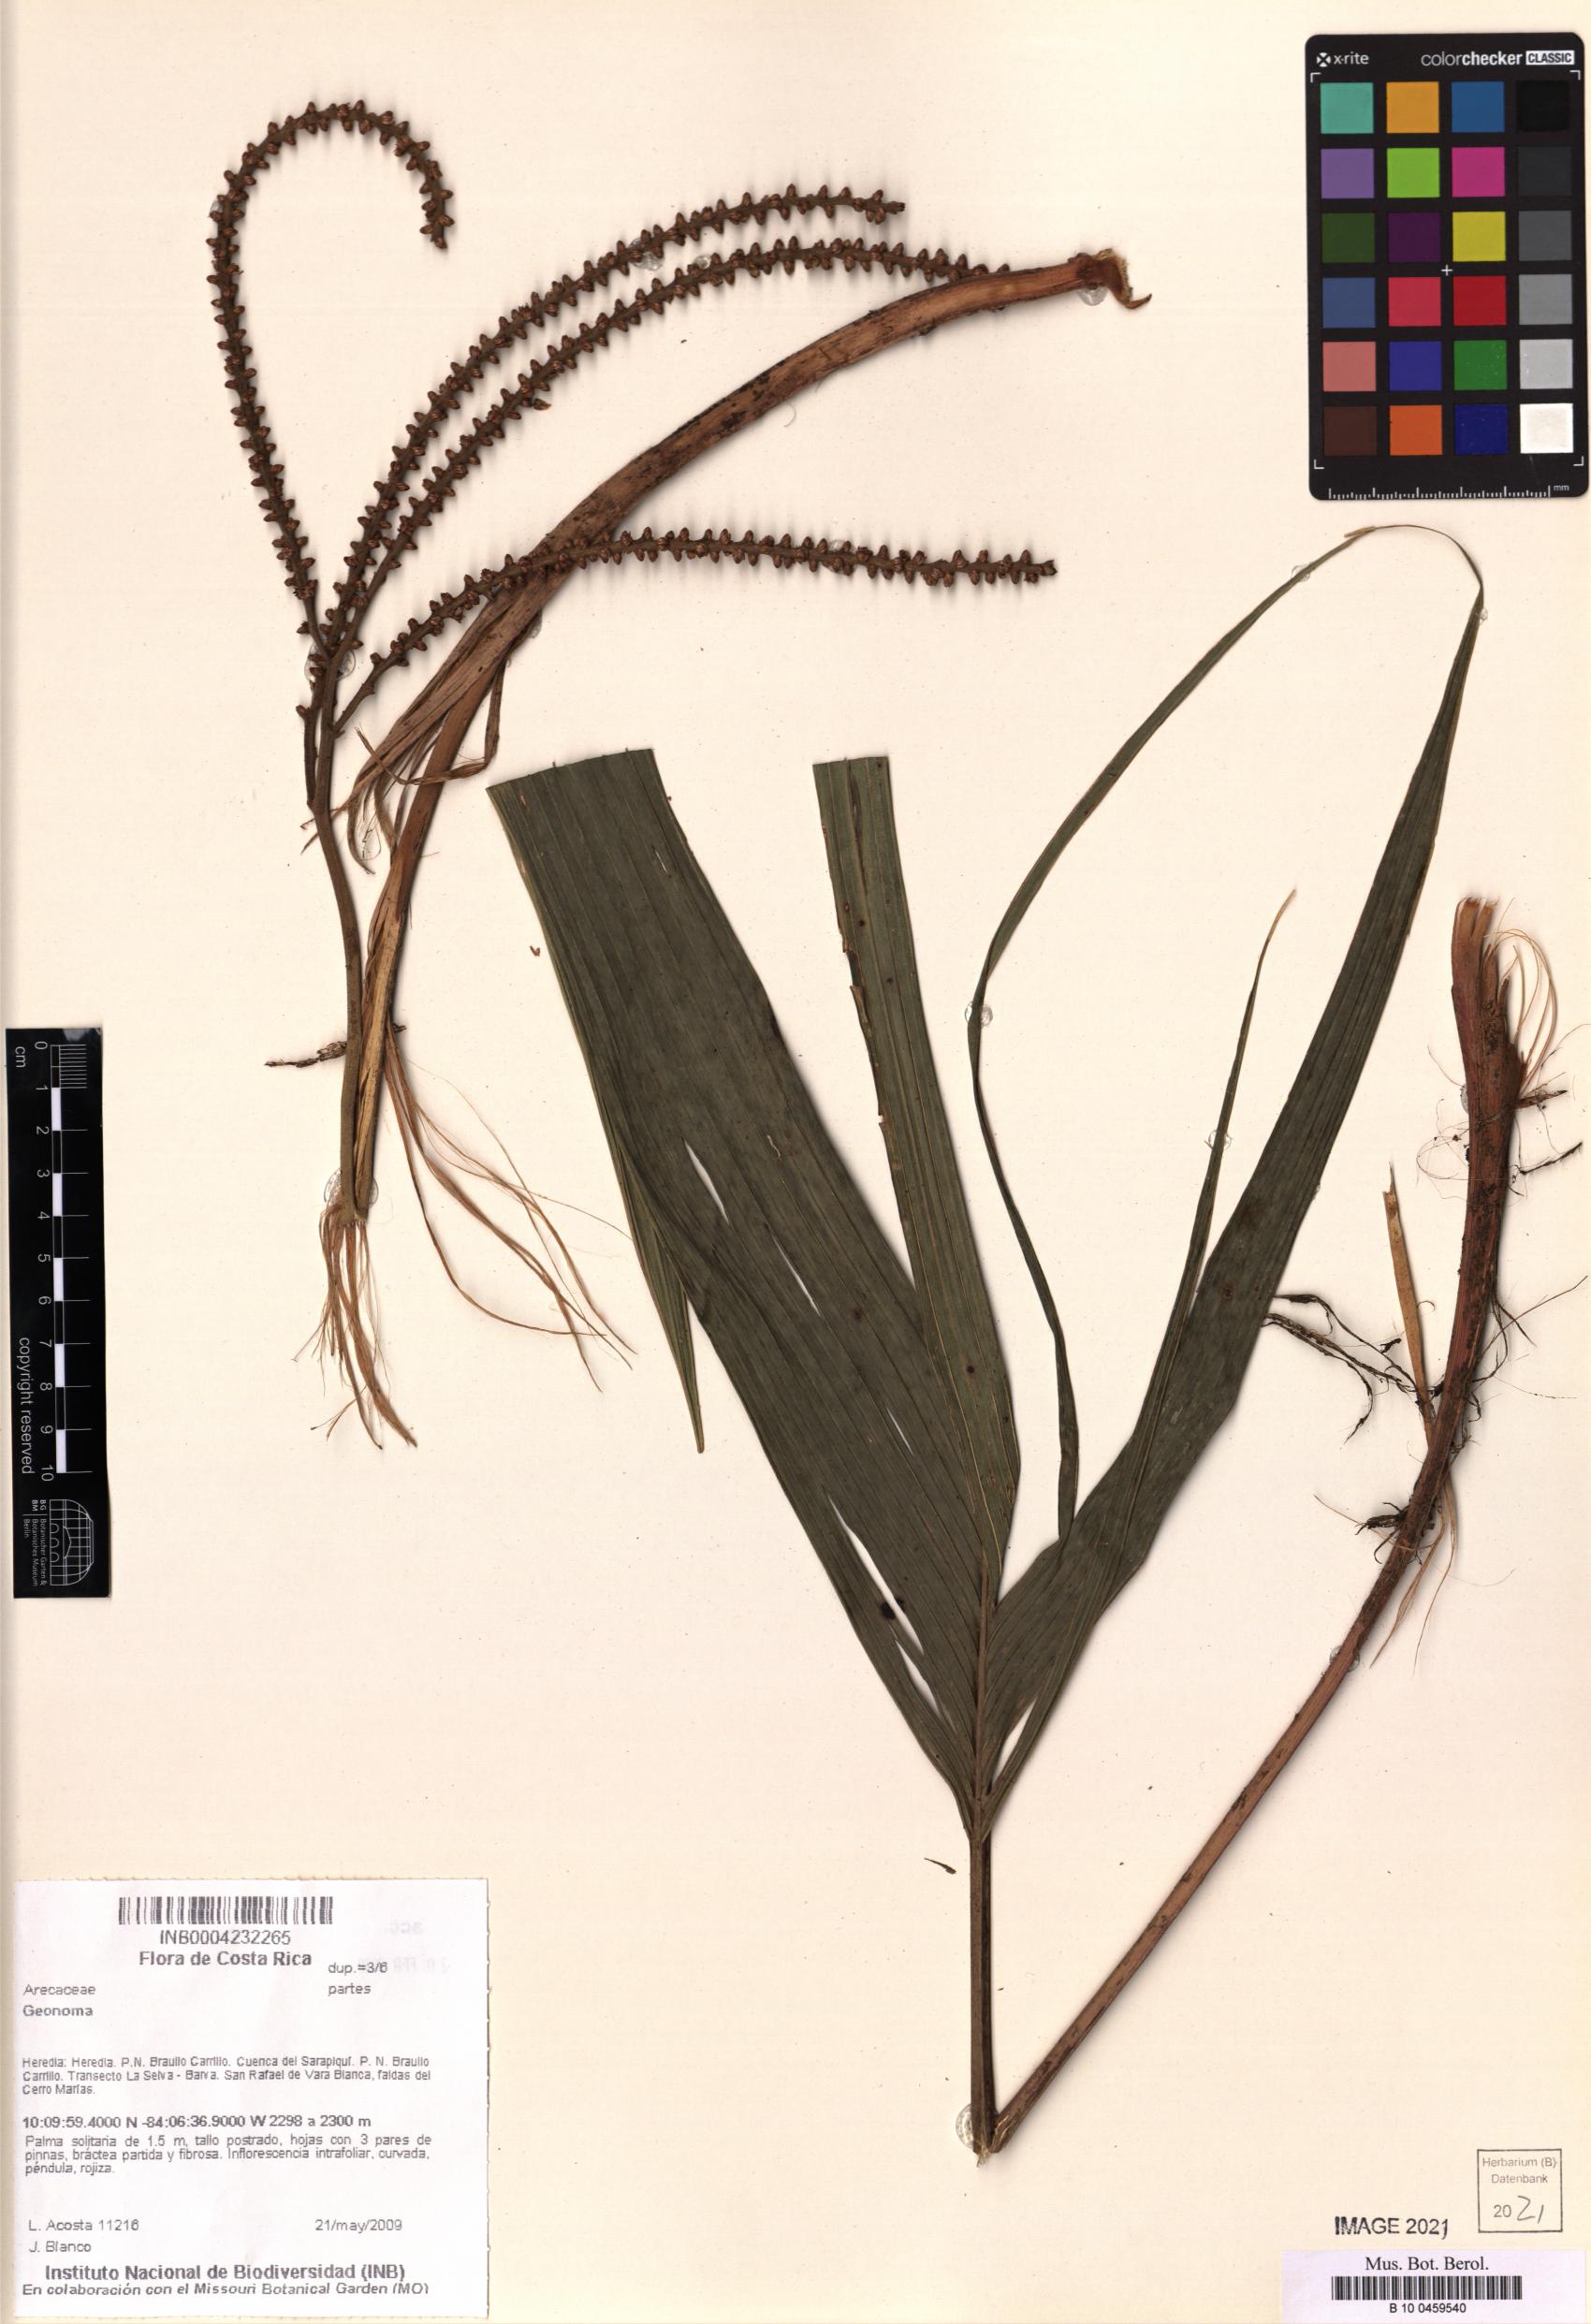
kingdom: Plantae
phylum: Tracheophyta
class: Liliopsida
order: Arecales
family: Arecaceae
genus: Geonoma
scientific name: Geonoma
